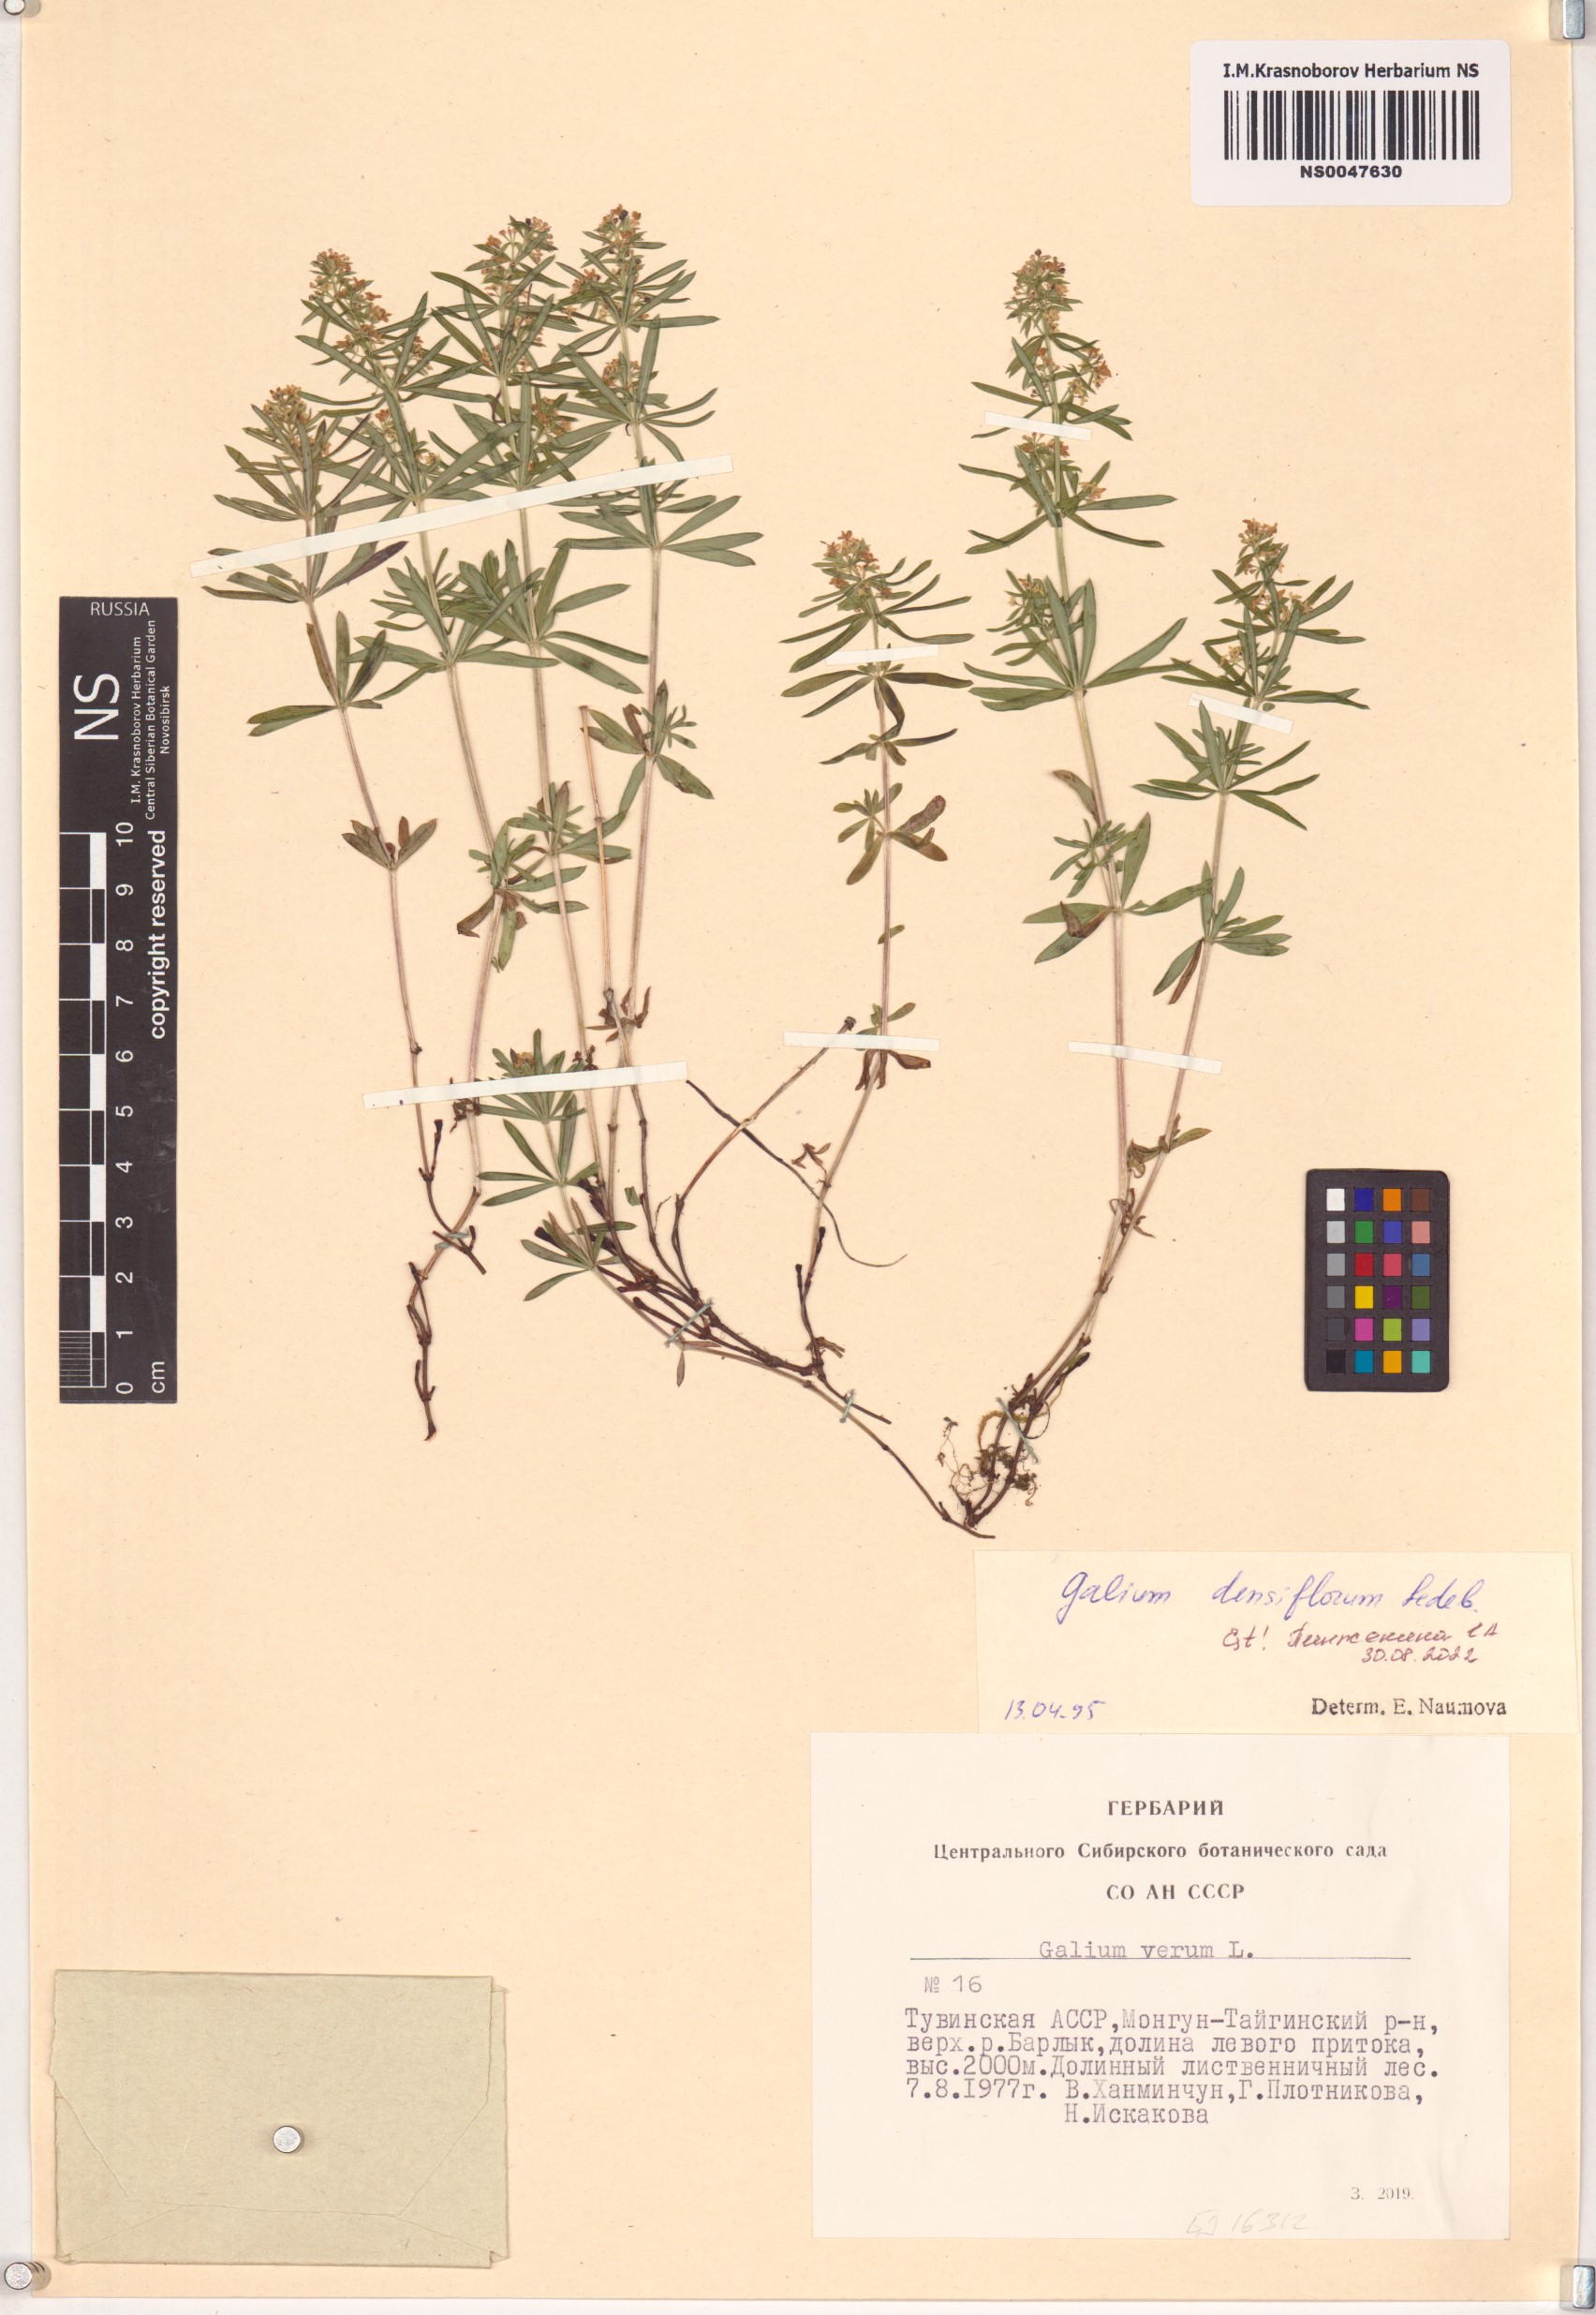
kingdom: Plantae
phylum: Tracheophyta
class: Magnoliopsida
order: Gentianales
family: Rubiaceae
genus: Galium
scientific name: Galium densiflorum
